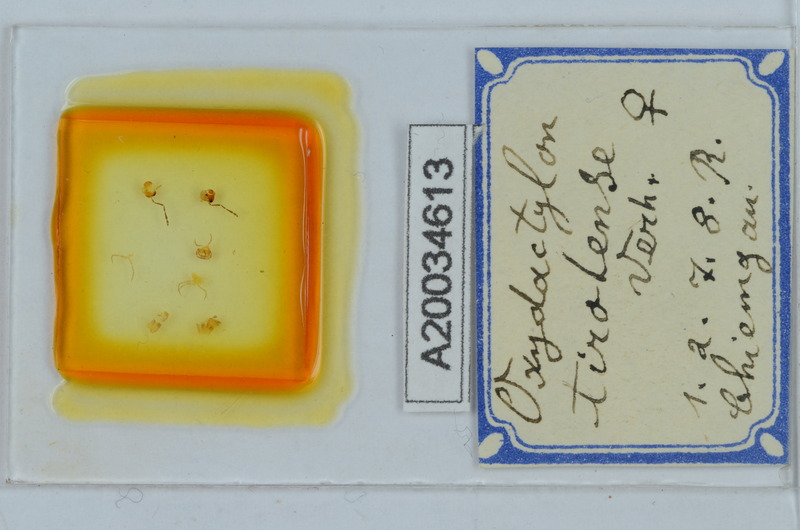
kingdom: Animalia
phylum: Arthropoda
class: Diplopoda
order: Chordeumatida
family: Craspedosomatidae
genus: Oxydactylon
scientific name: Oxydactylon tirolense
